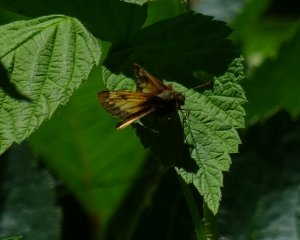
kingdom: Animalia
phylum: Arthropoda
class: Insecta
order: Lepidoptera
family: Hesperiidae
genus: Lon
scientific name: Lon hobomok
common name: Hobomok Skipper
